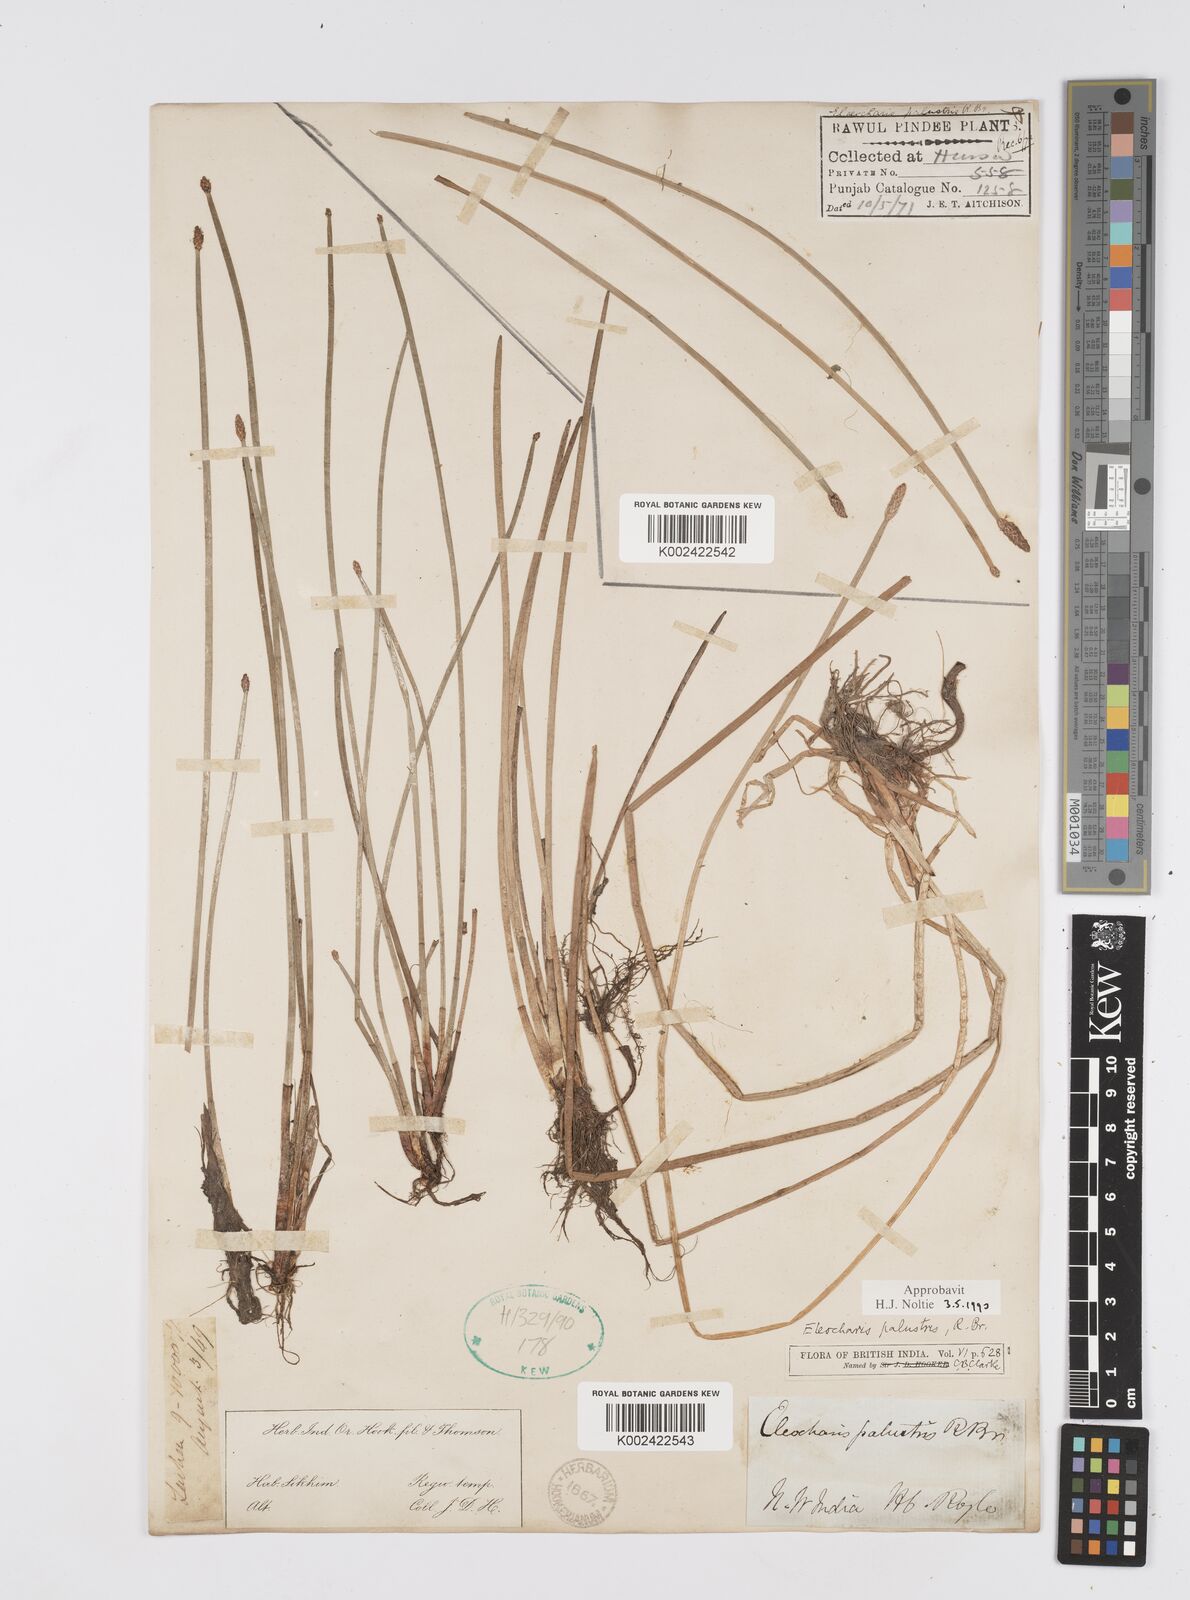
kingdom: Plantae
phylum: Tracheophyta
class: Liliopsida
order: Poales
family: Cyperaceae
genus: Eleocharis
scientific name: Eleocharis palustris
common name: Common spike-rush
